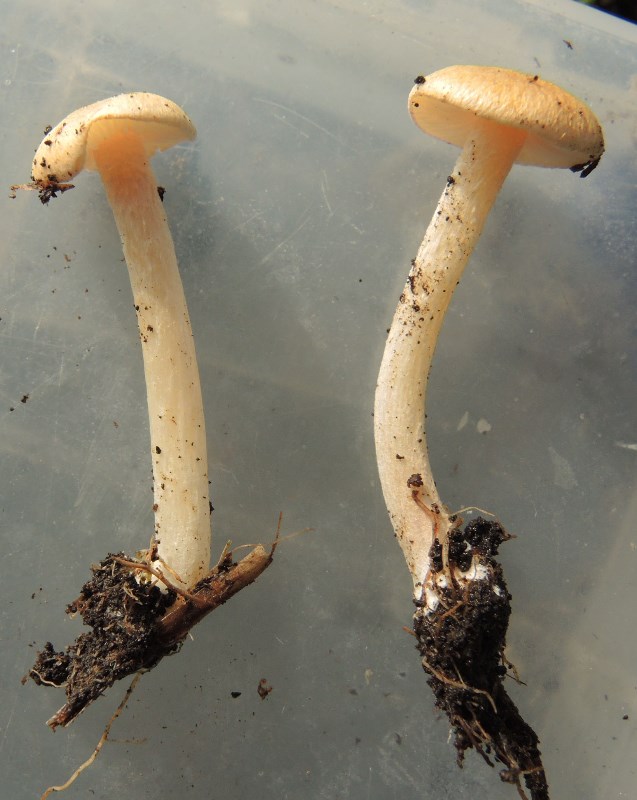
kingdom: Fungi
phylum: Basidiomycota
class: Agaricomycetes
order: Agaricales
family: Entolomataceae
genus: Entoloma
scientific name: Entoloma
